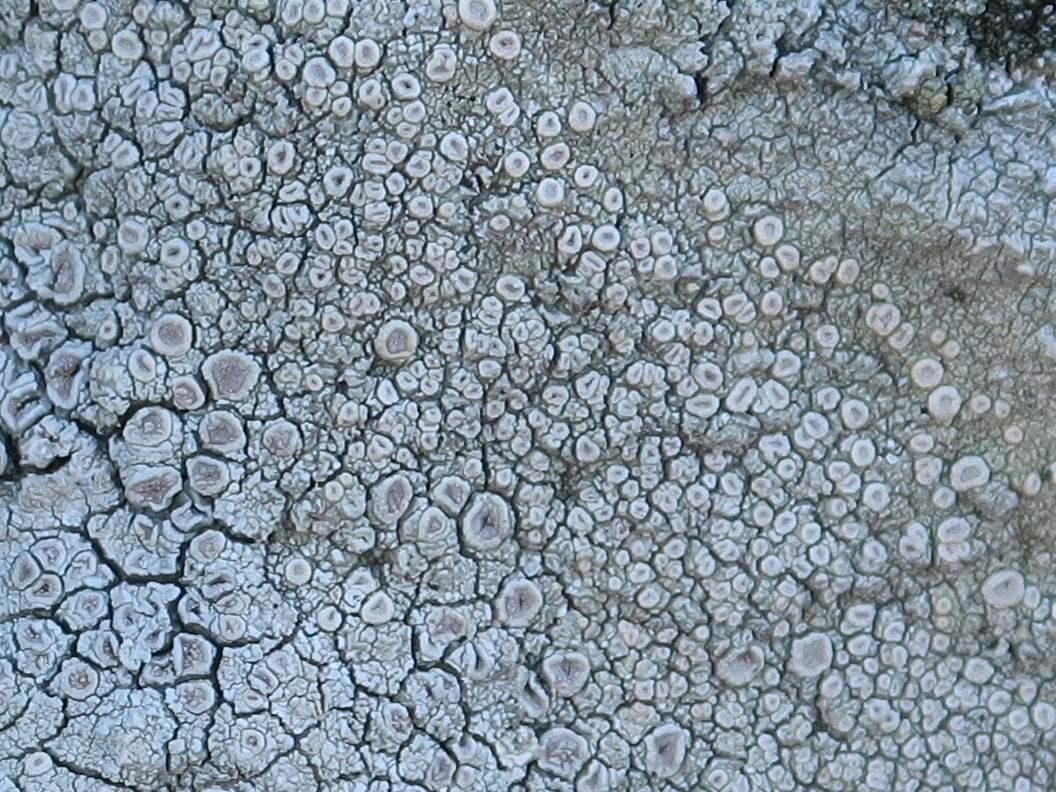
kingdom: Fungi
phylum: Ascomycota
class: Lecanoromycetes
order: Pertusariales
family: Ochrolechiaceae
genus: Ochrolechia
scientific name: Ochrolechia parella
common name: almindelig blegskivelav
